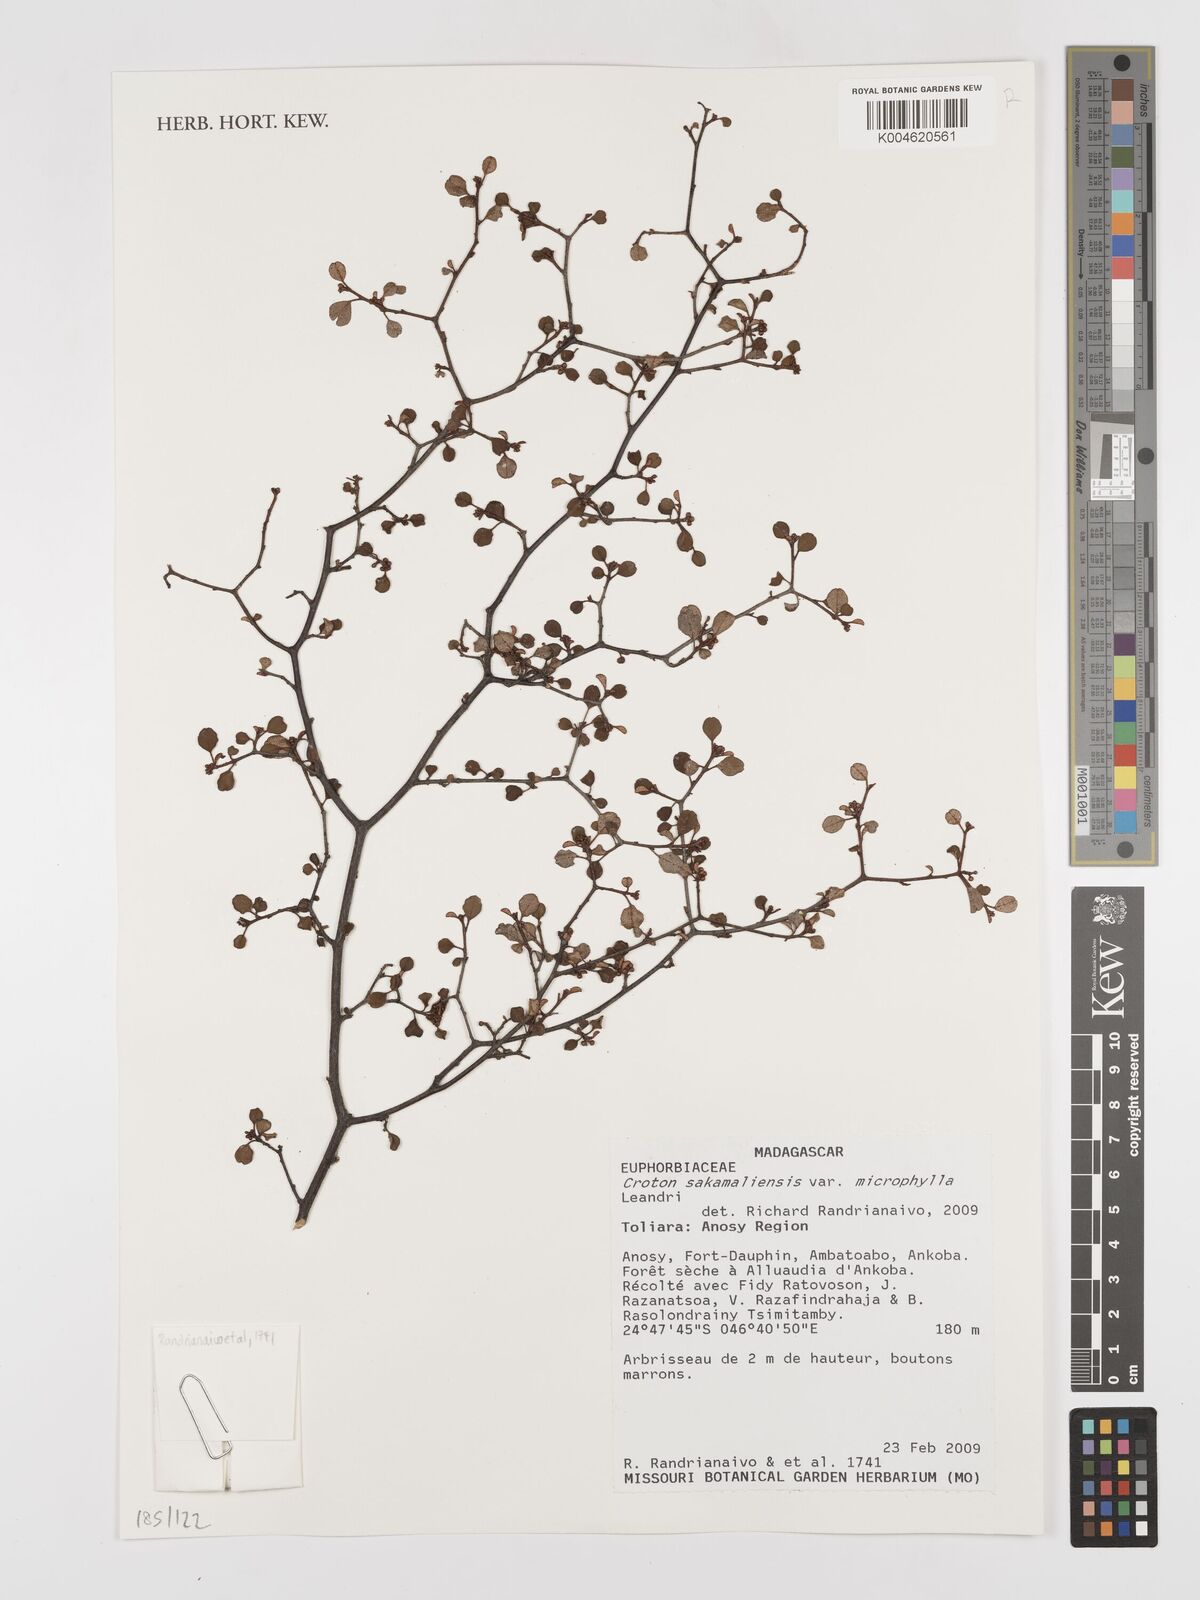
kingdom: Plantae
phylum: Tracheophyta
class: Magnoliopsida
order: Malpighiales
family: Euphorbiaceae
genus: Croton
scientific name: Croton sakamaliensis
